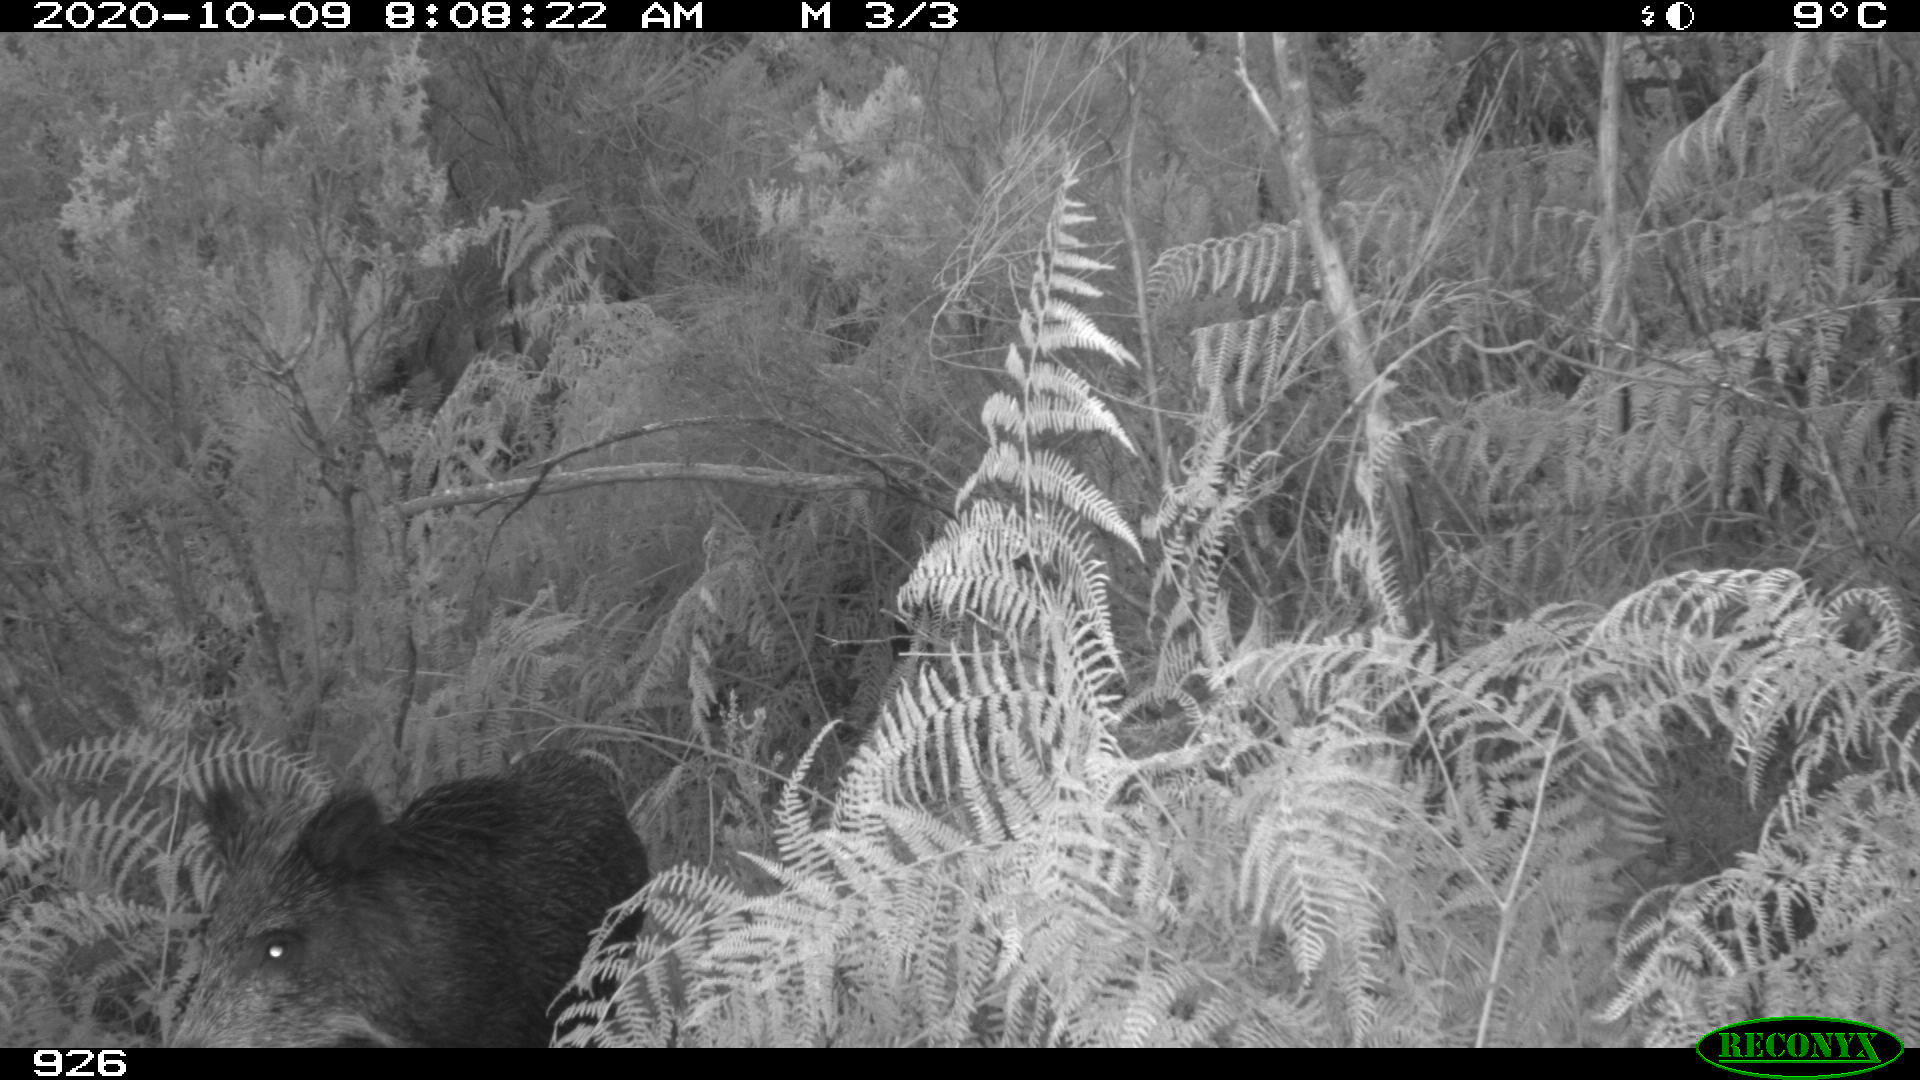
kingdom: Animalia
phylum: Chordata
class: Mammalia
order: Artiodactyla
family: Suidae
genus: Sus
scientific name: Sus scrofa
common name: Wild boar
